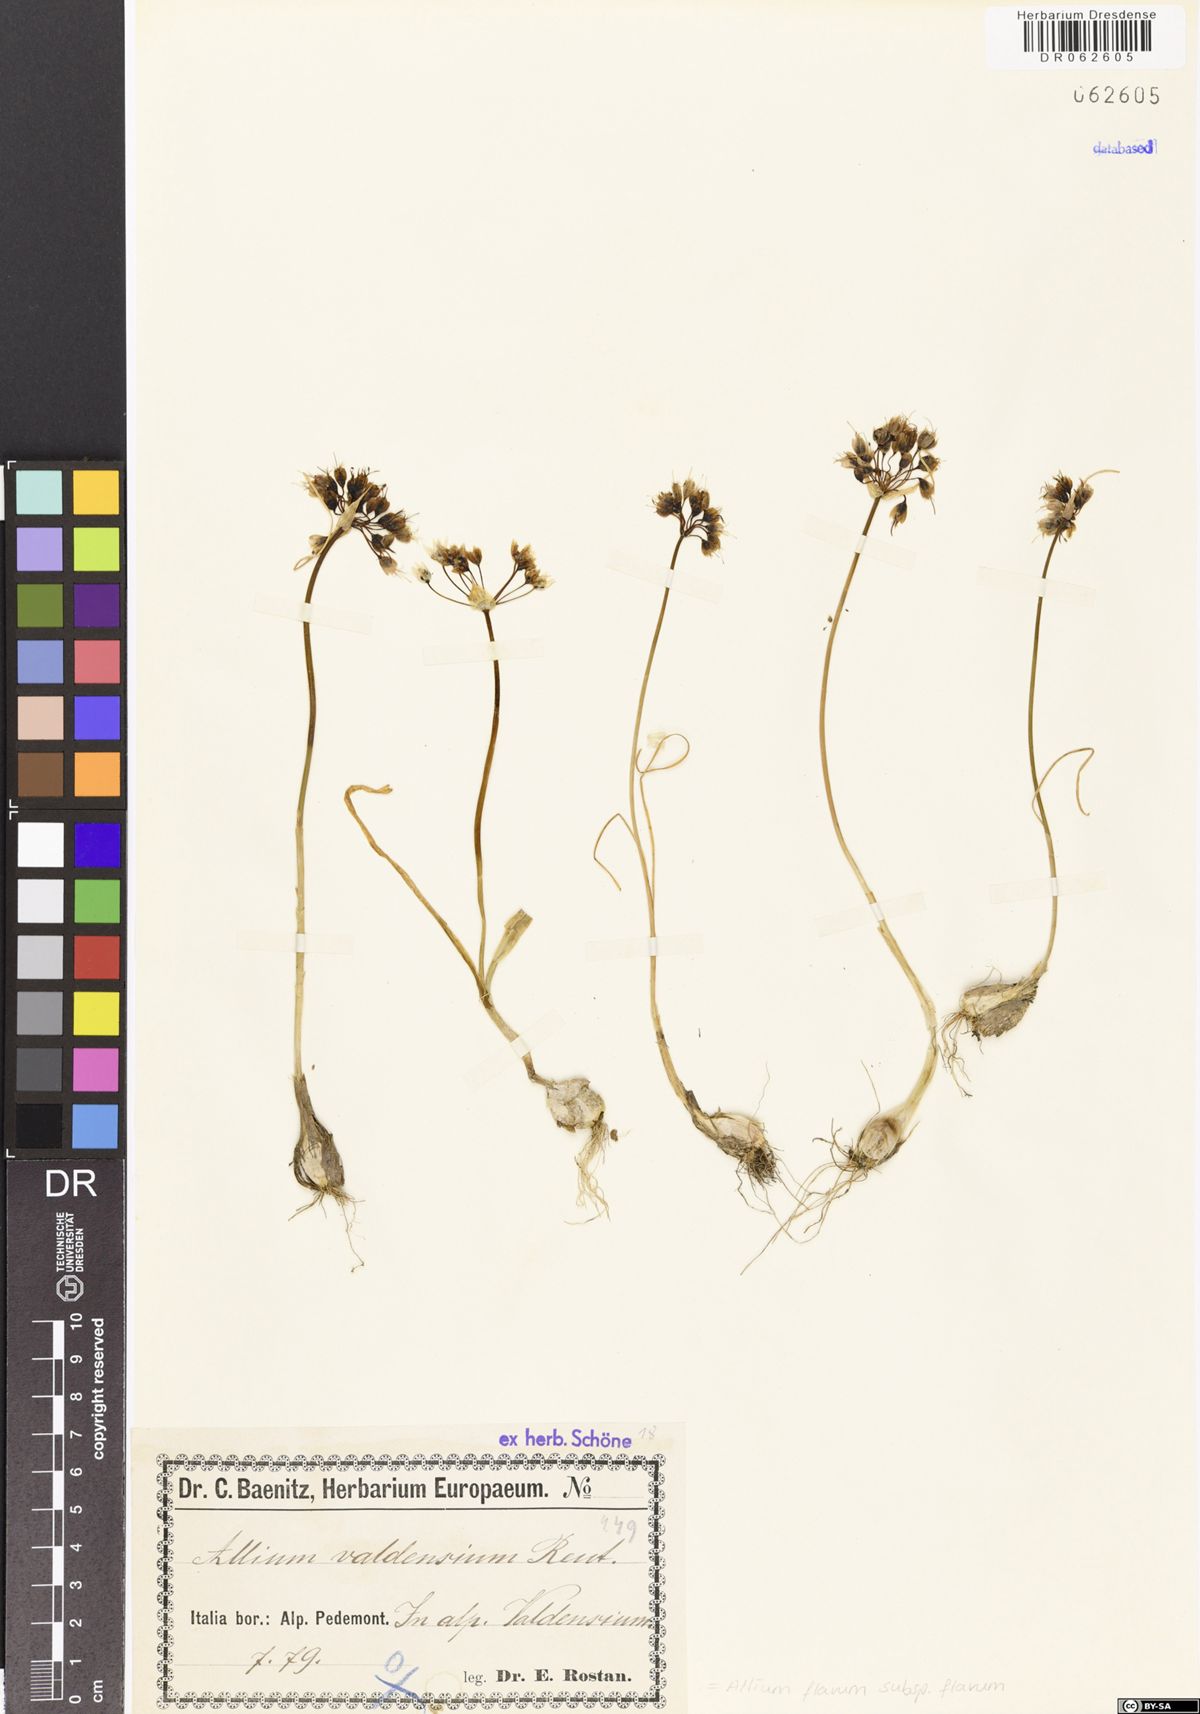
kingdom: Plantae
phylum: Tracheophyta
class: Liliopsida
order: Asparagales
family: Amaryllidaceae
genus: Allium
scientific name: Allium flavum
